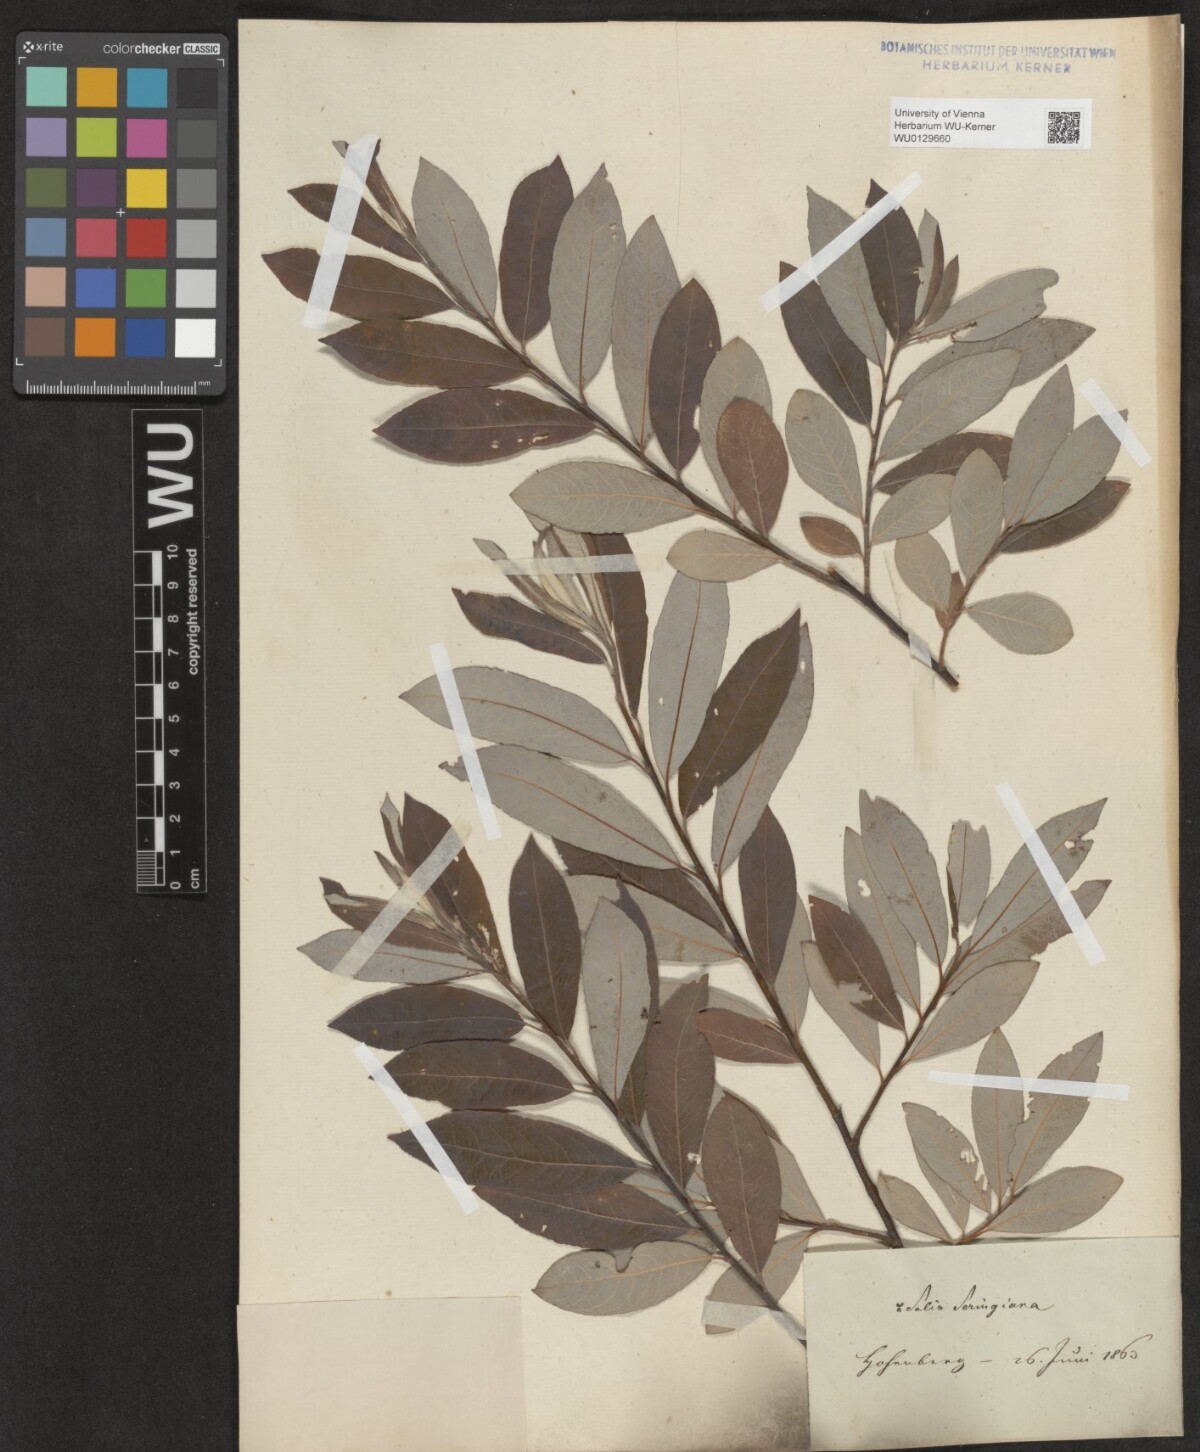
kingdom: Plantae
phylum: Tracheophyta
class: Magnoliopsida
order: Malpighiales
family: Salicaceae
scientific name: Salicaceae
